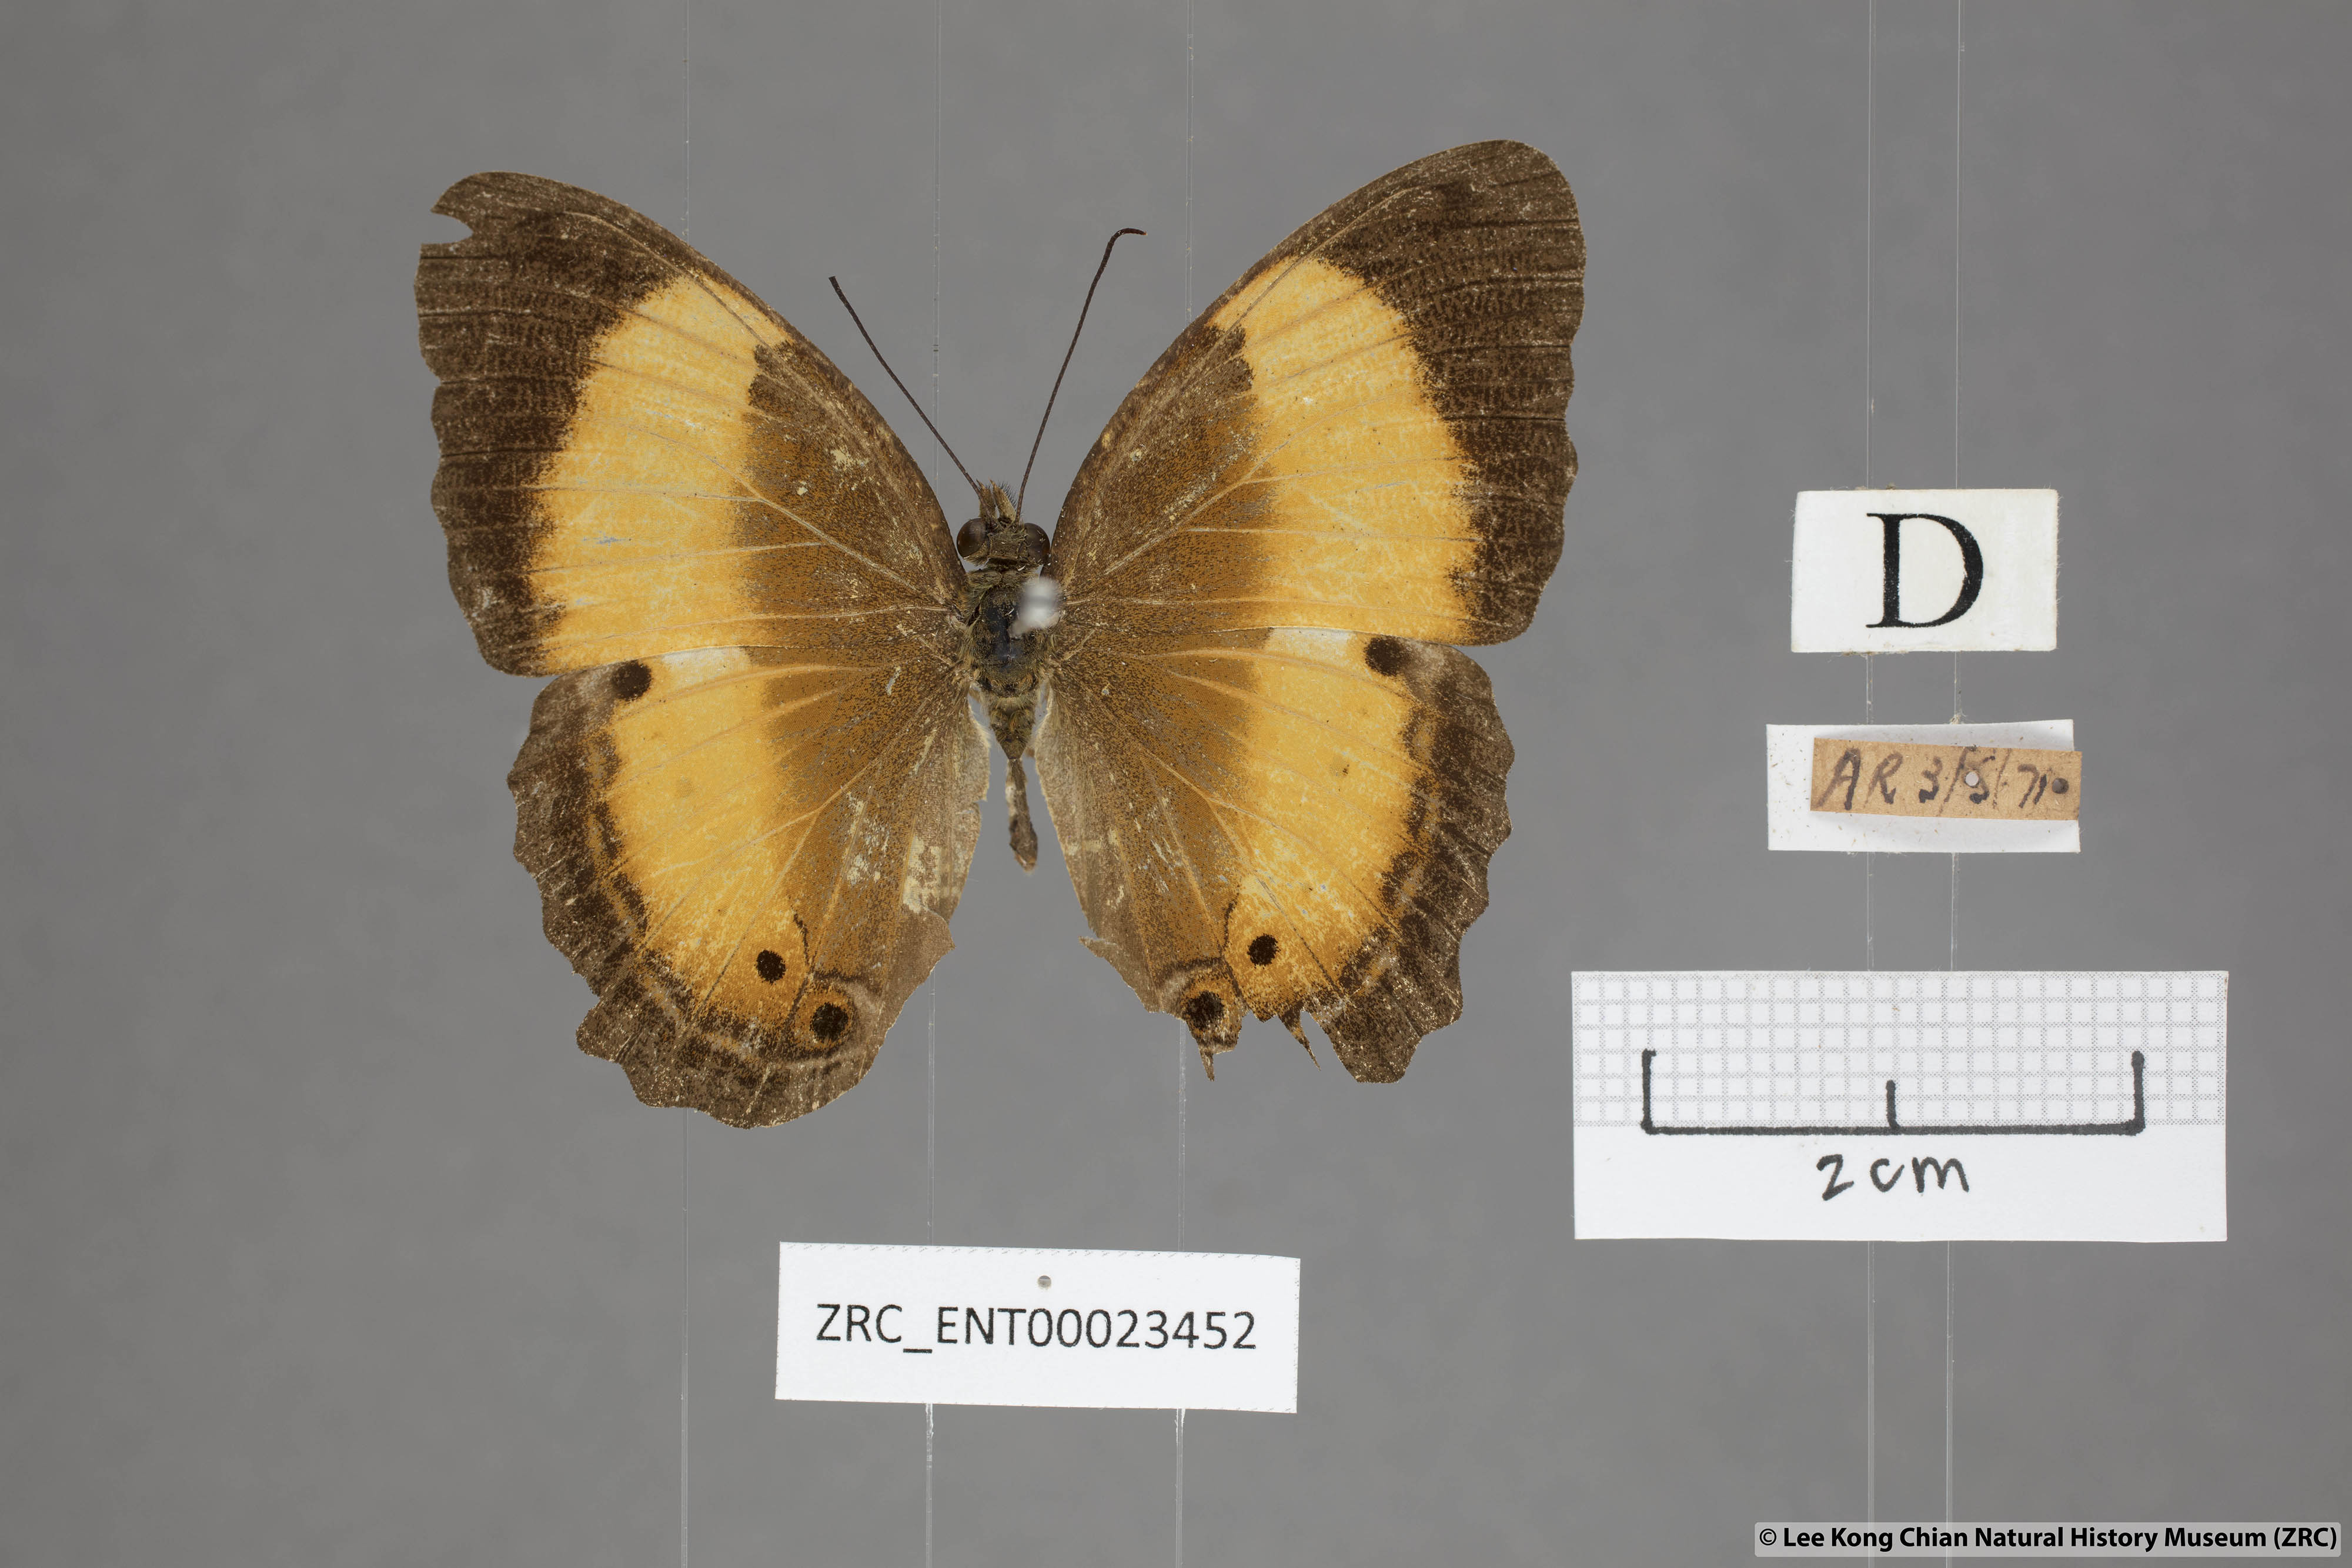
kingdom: Animalia
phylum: Arthropoda
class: Insecta
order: Lepidoptera
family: Nymphalidae
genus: Cirrochroa
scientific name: Cirrochroa satellita
